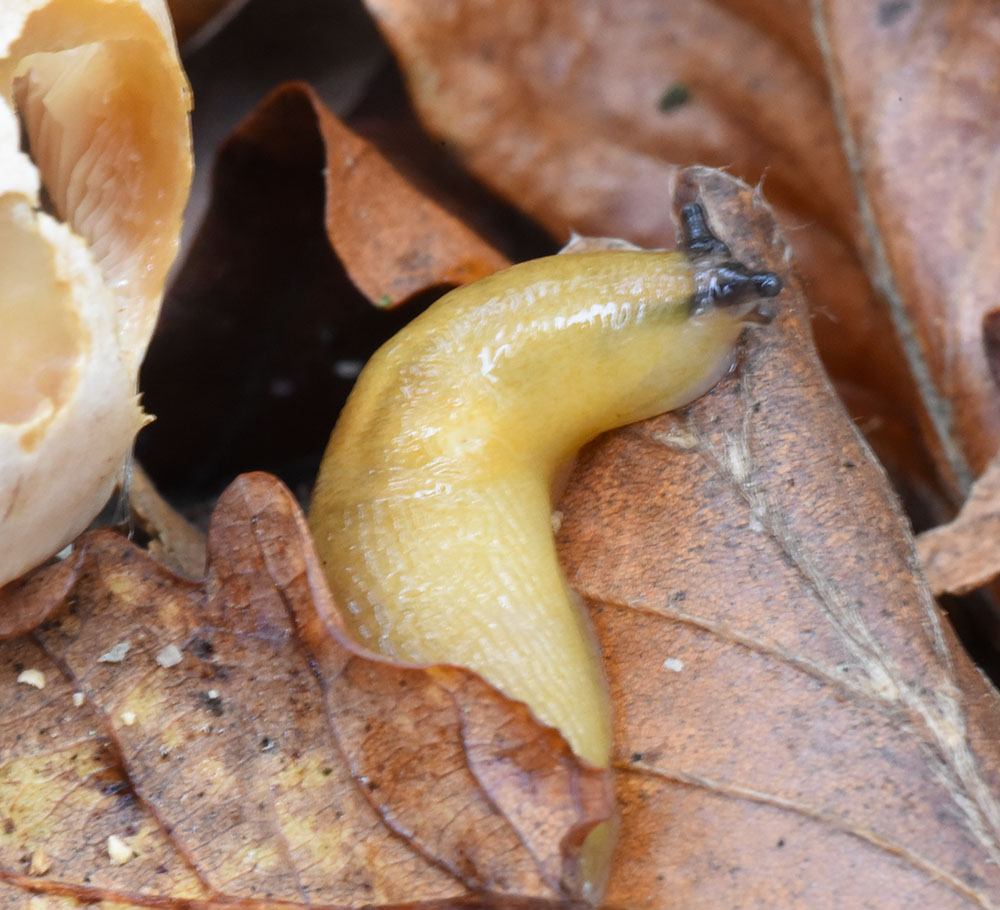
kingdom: Animalia
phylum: Mollusca
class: Gastropoda
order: Stylommatophora
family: Limacidae
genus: Malacolimax
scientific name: Malacolimax tenellus
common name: Lemon slug
